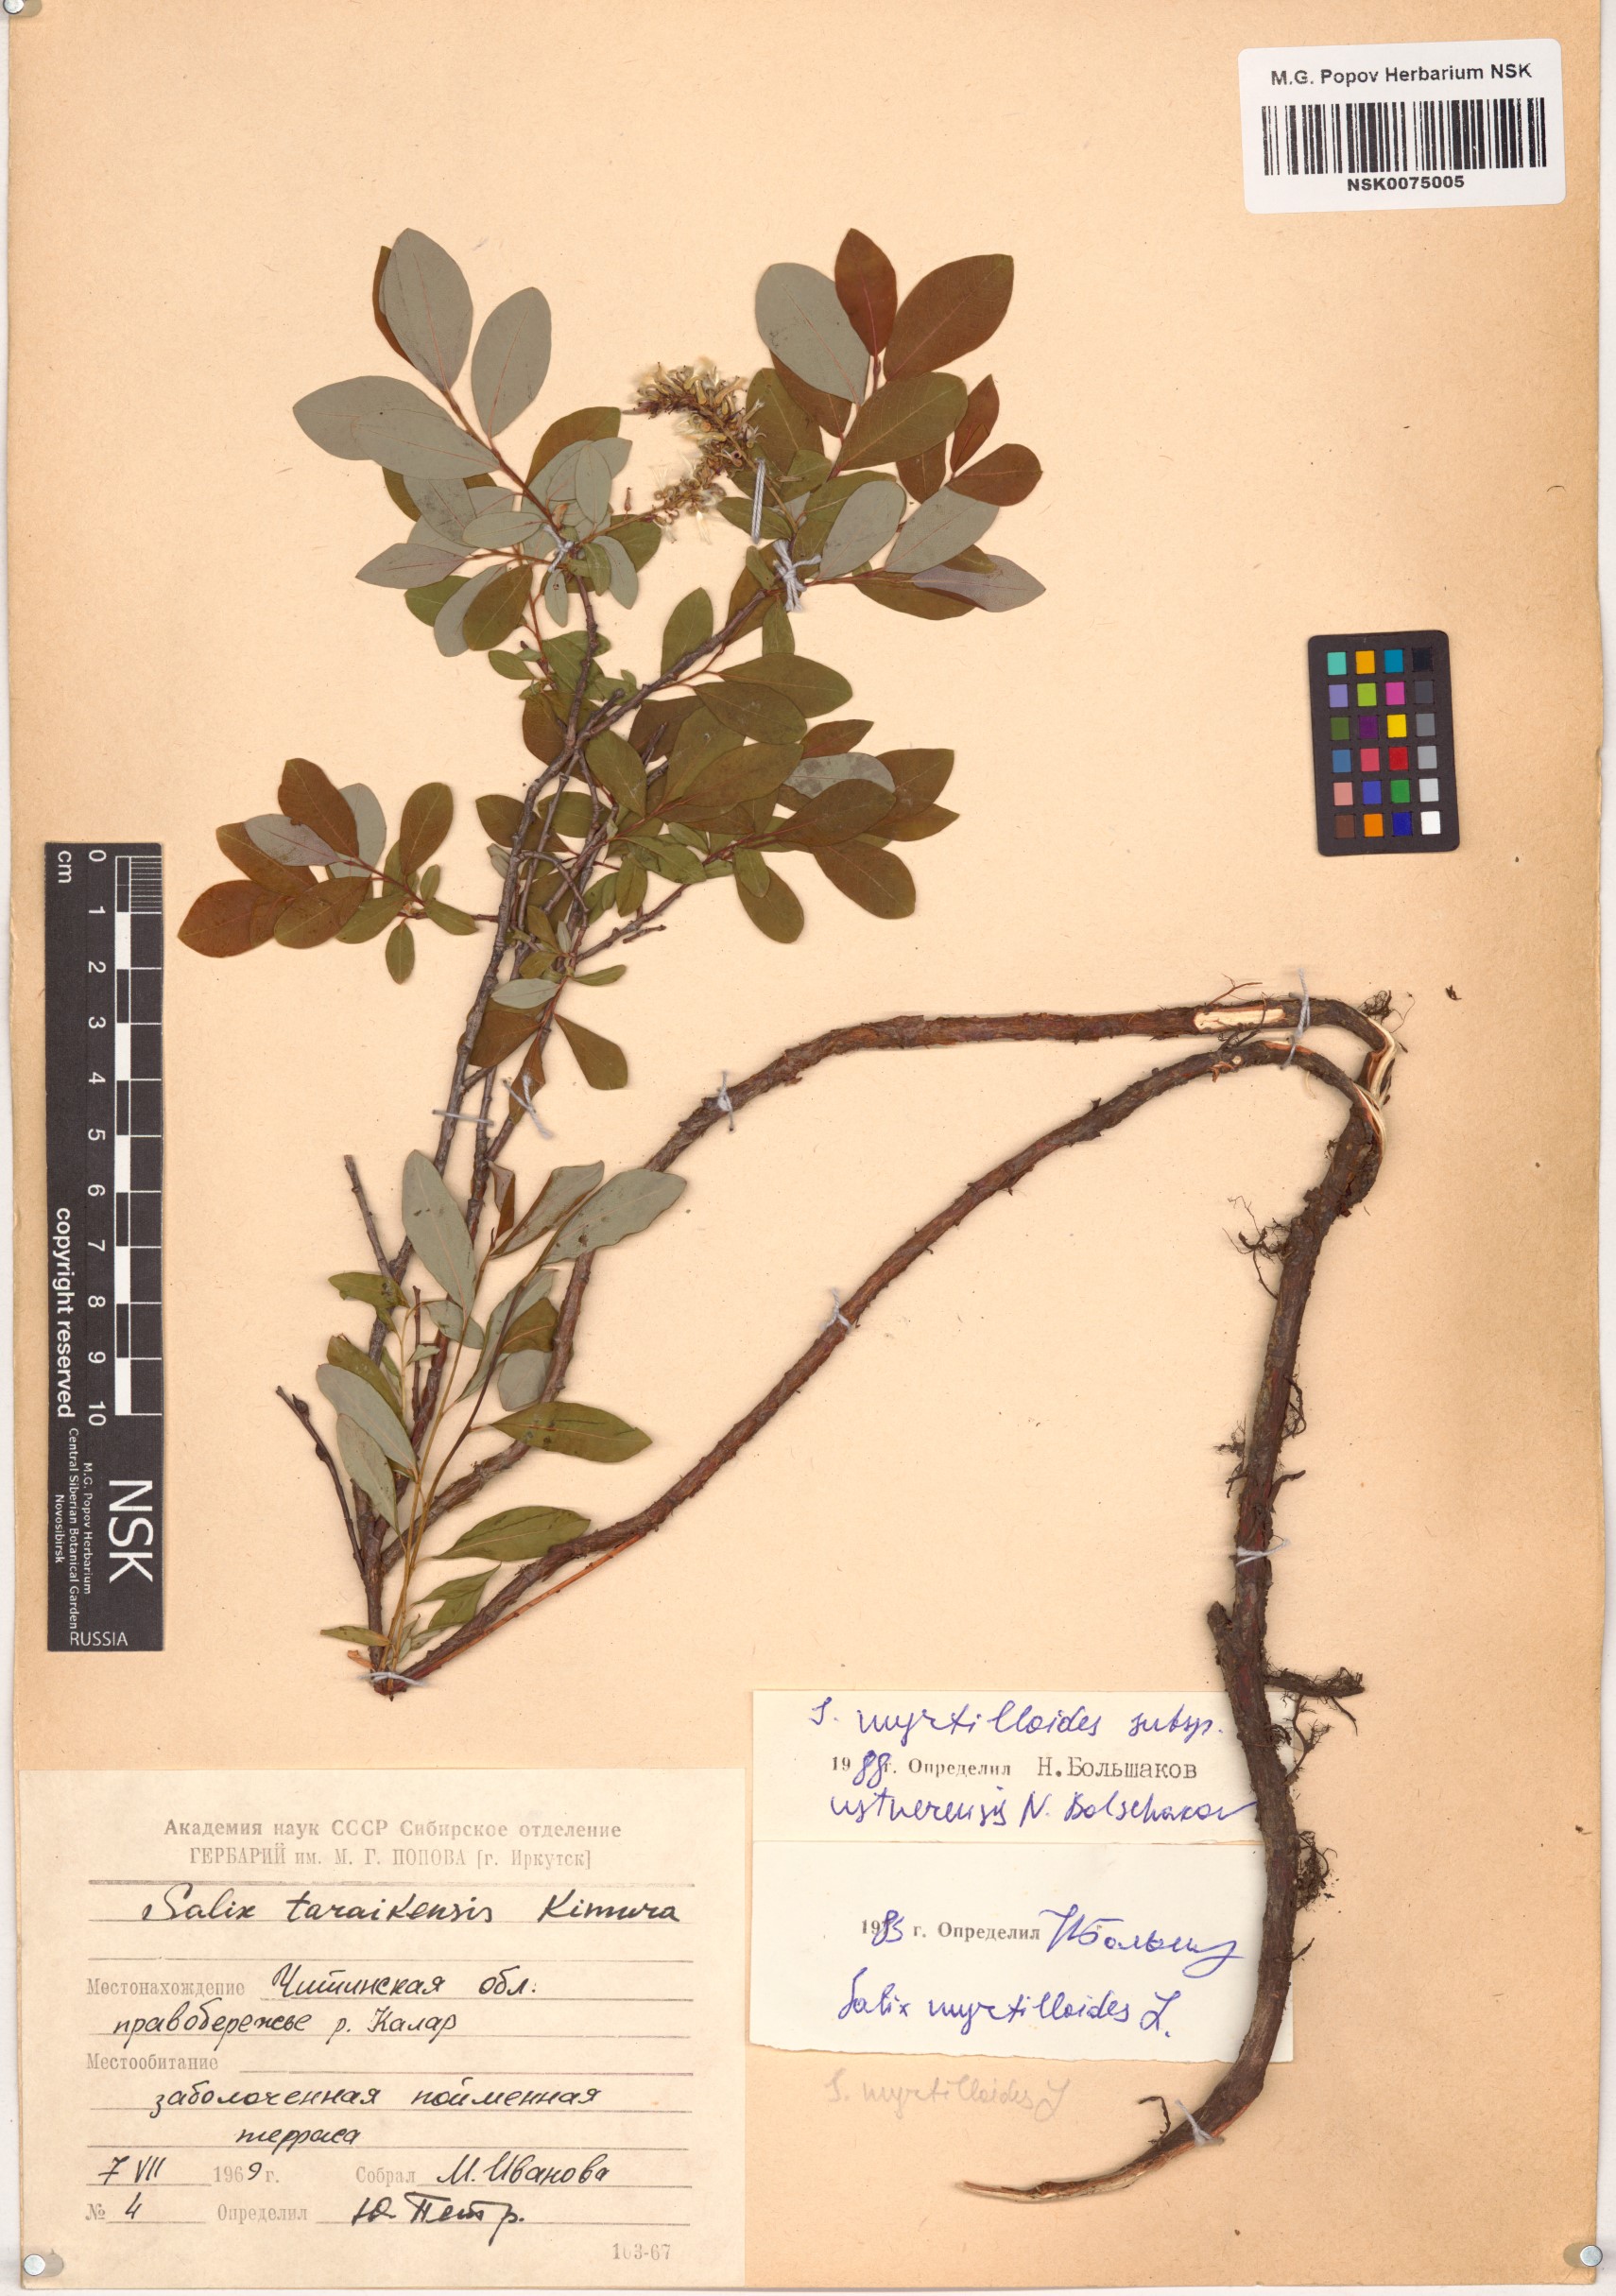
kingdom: Plantae
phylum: Tracheophyta
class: Magnoliopsida
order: Malpighiales
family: Salicaceae
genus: Salix
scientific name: Salix ustnerensis
